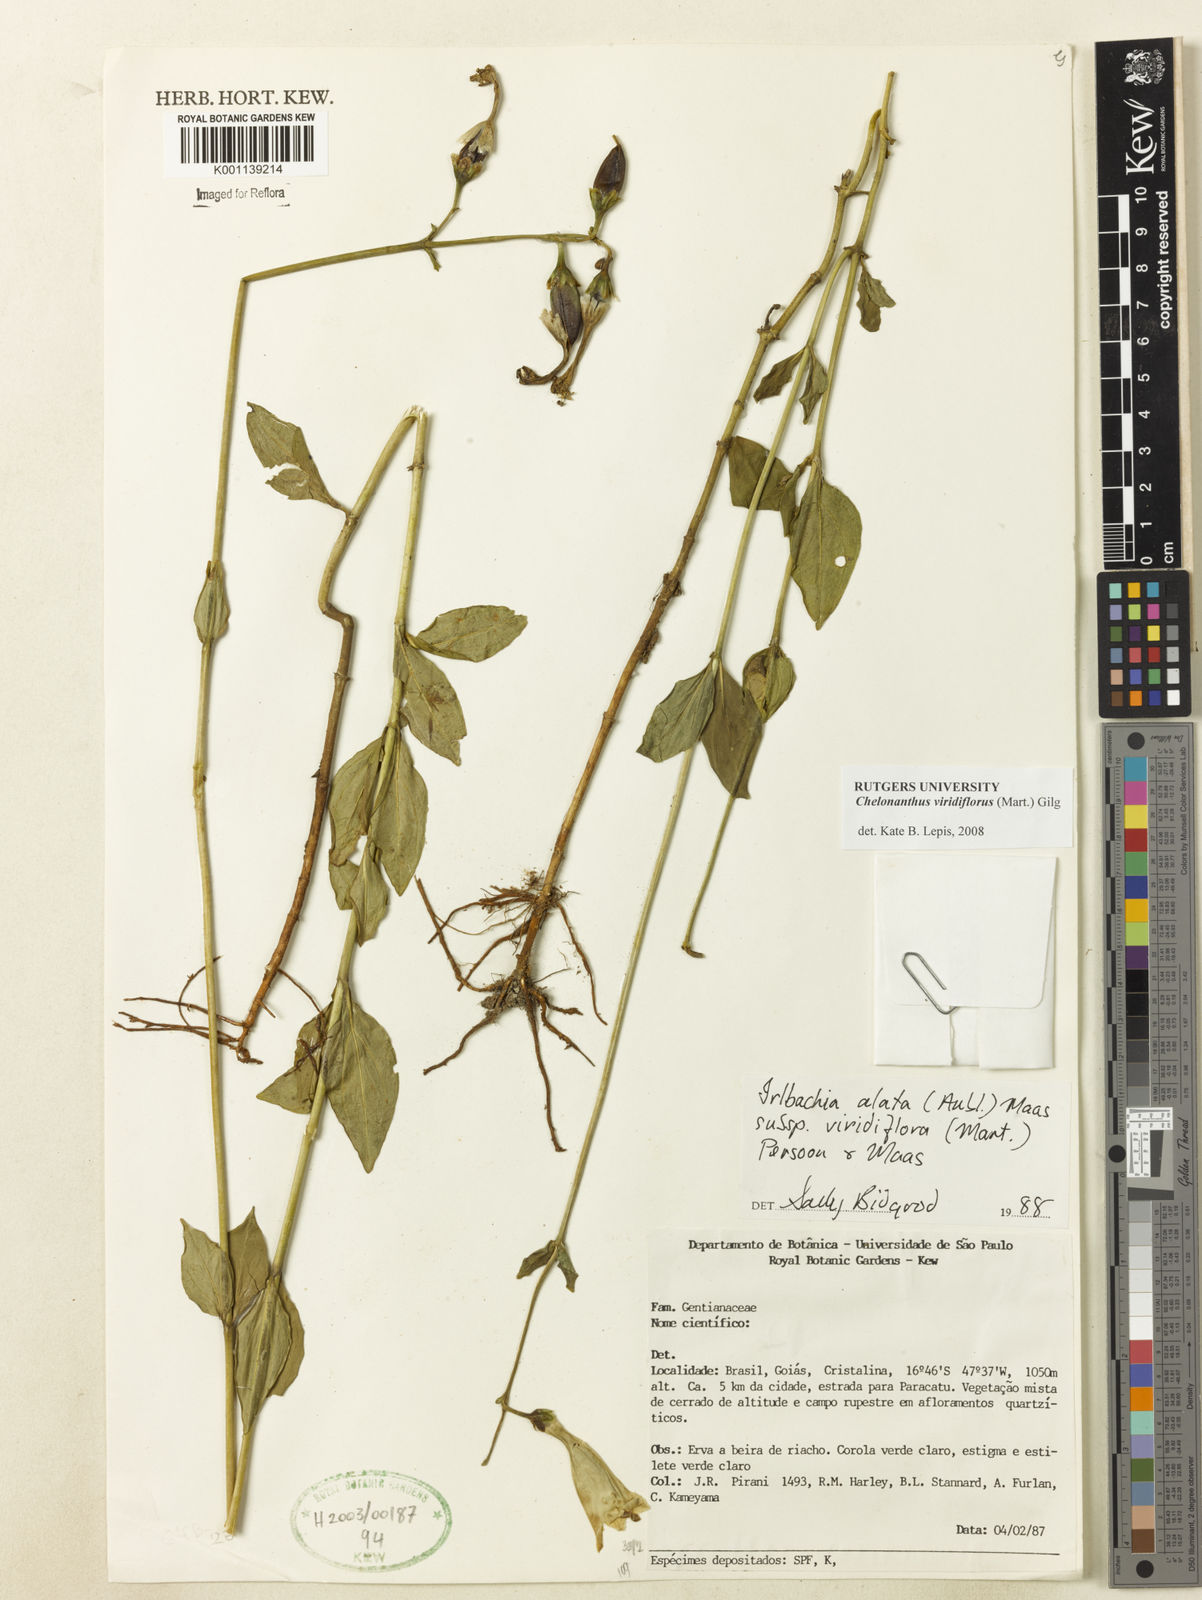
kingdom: Plantae
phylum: Tracheophyta
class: Magnoliopsida
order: Gentianales
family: Gentianaceae
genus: Chelonanthus
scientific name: Chelonanthus viridiflorus
